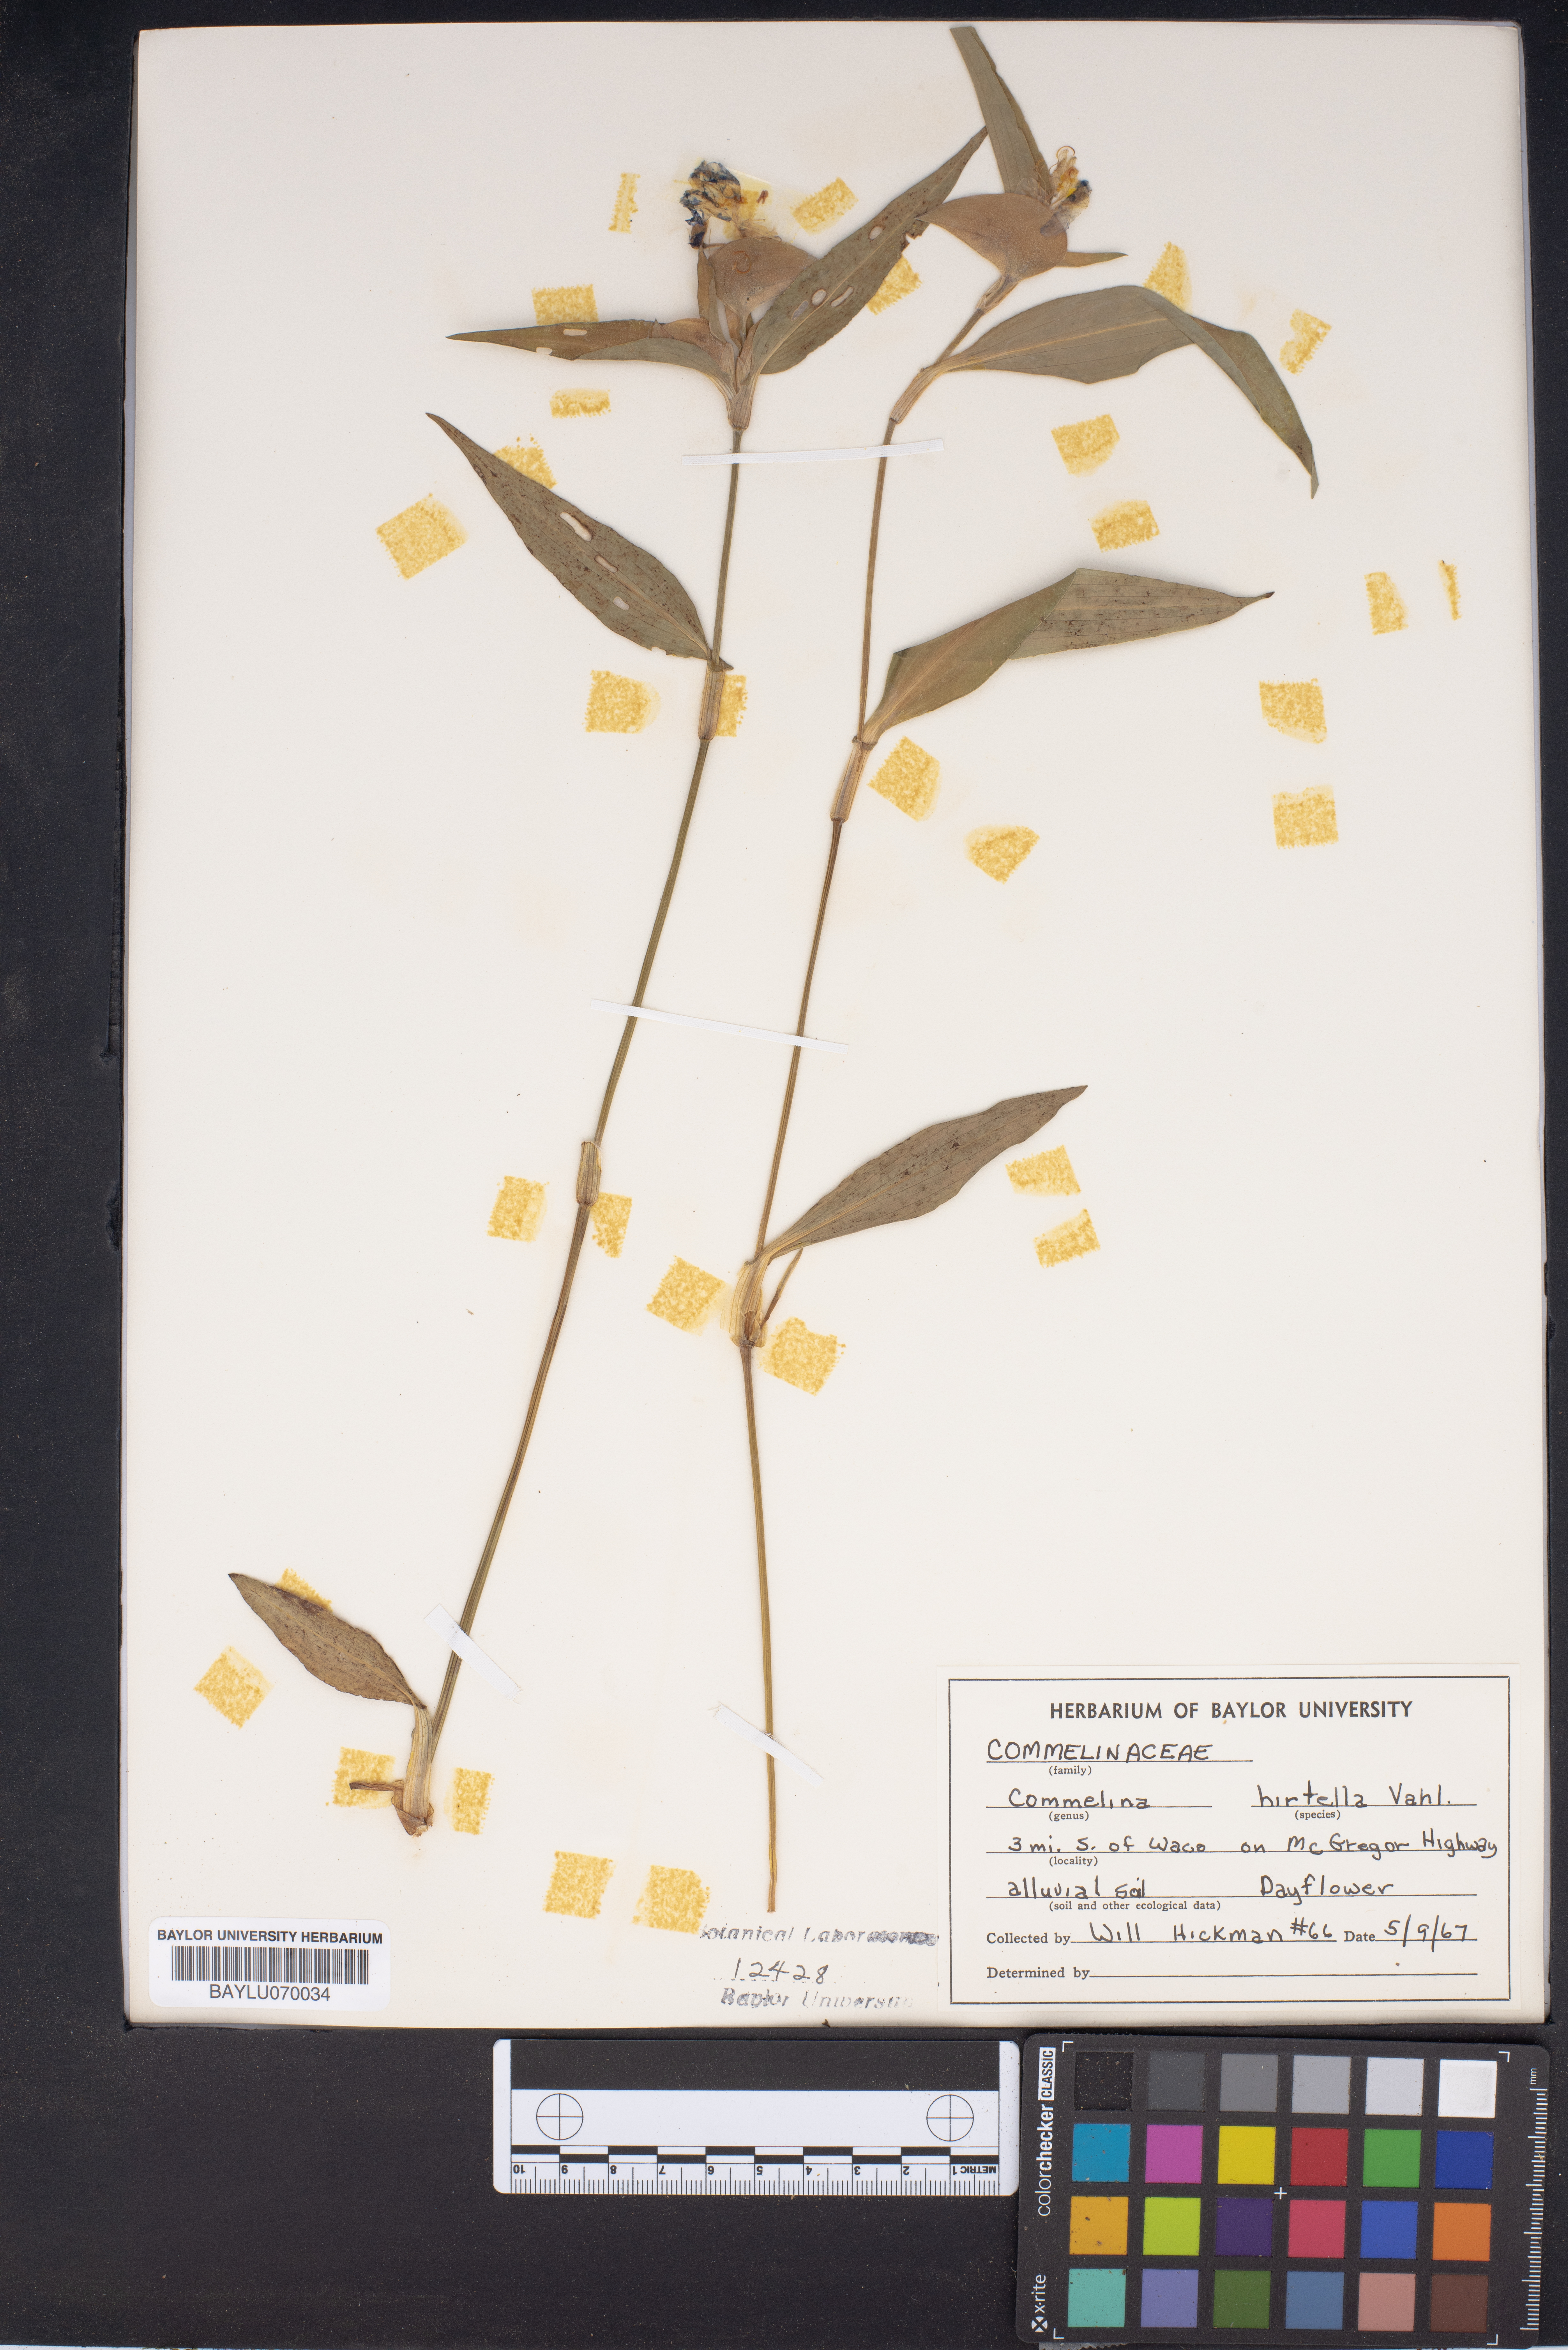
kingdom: Plantae
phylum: Tracheophyta
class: Liliopsida
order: Commelinales
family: Commelinaceae
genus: Commelina
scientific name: Commelina virginica
